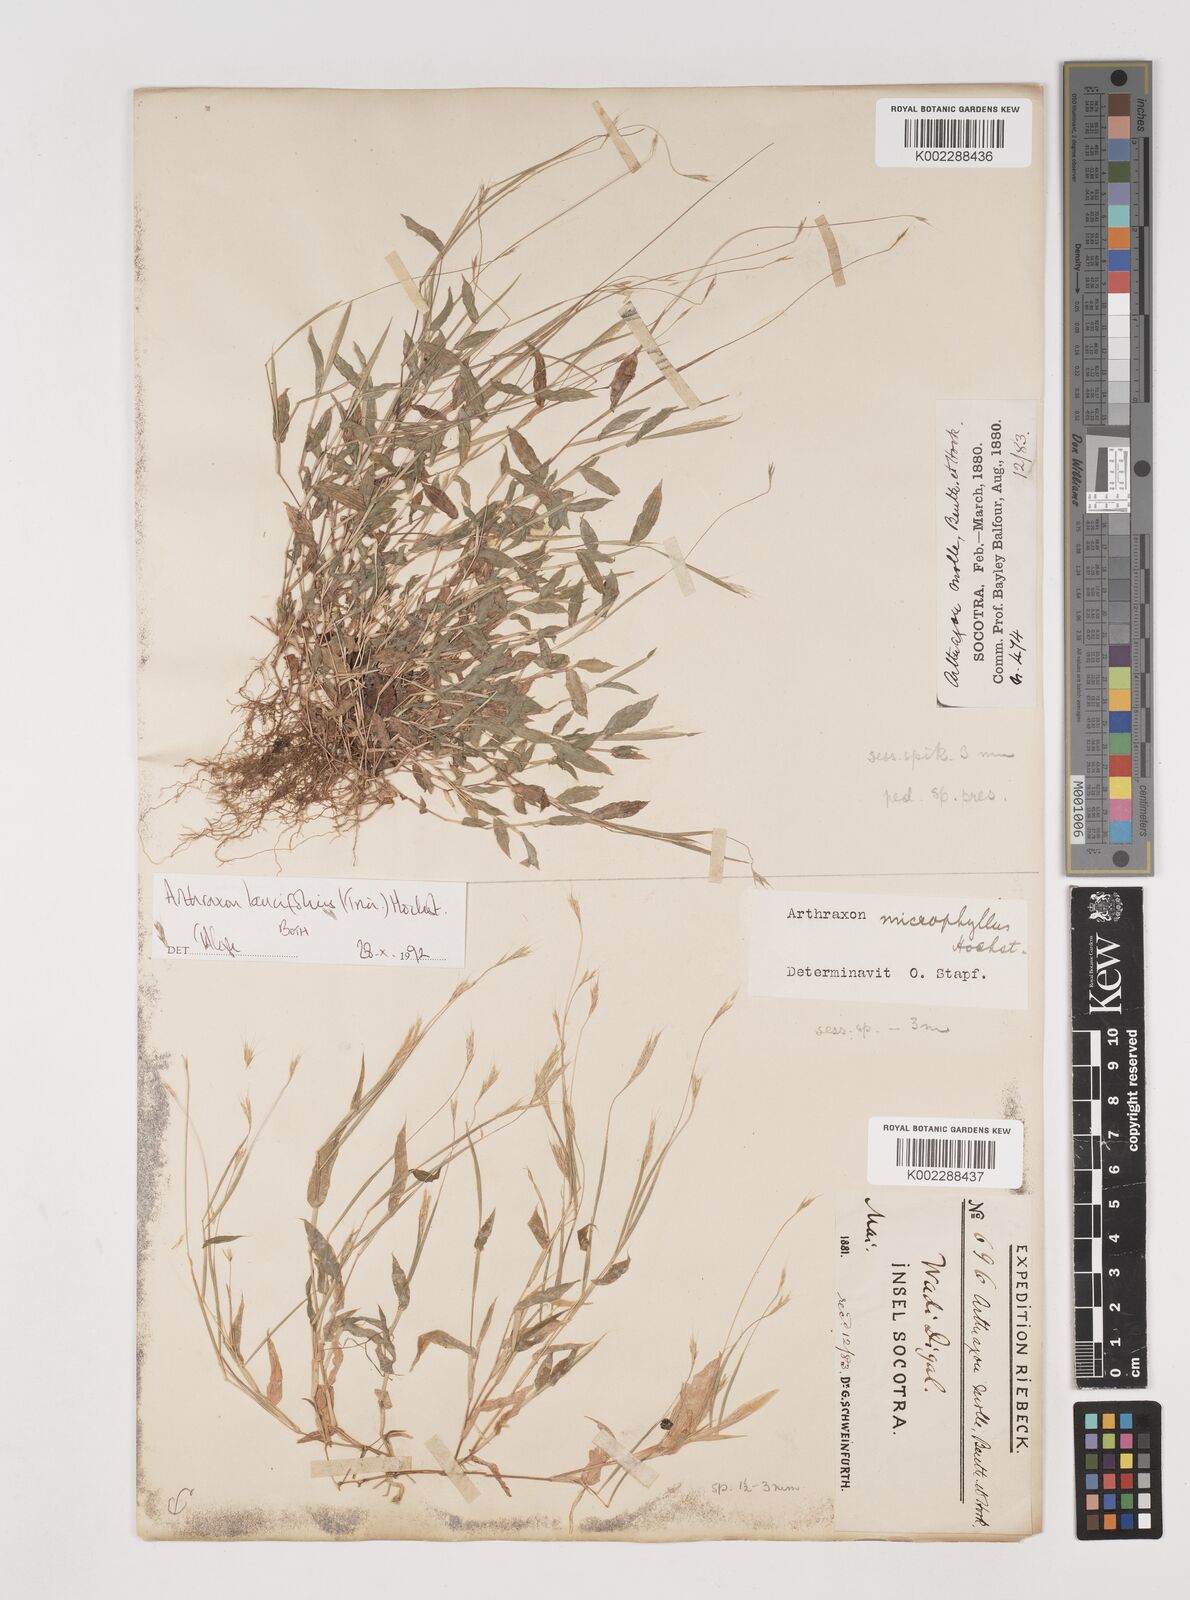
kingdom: Plantae
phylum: Tracheophyta
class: Liliopsida
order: Poales
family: Poaceae
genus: Arthraxon
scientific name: Arthraxon lancifolius
